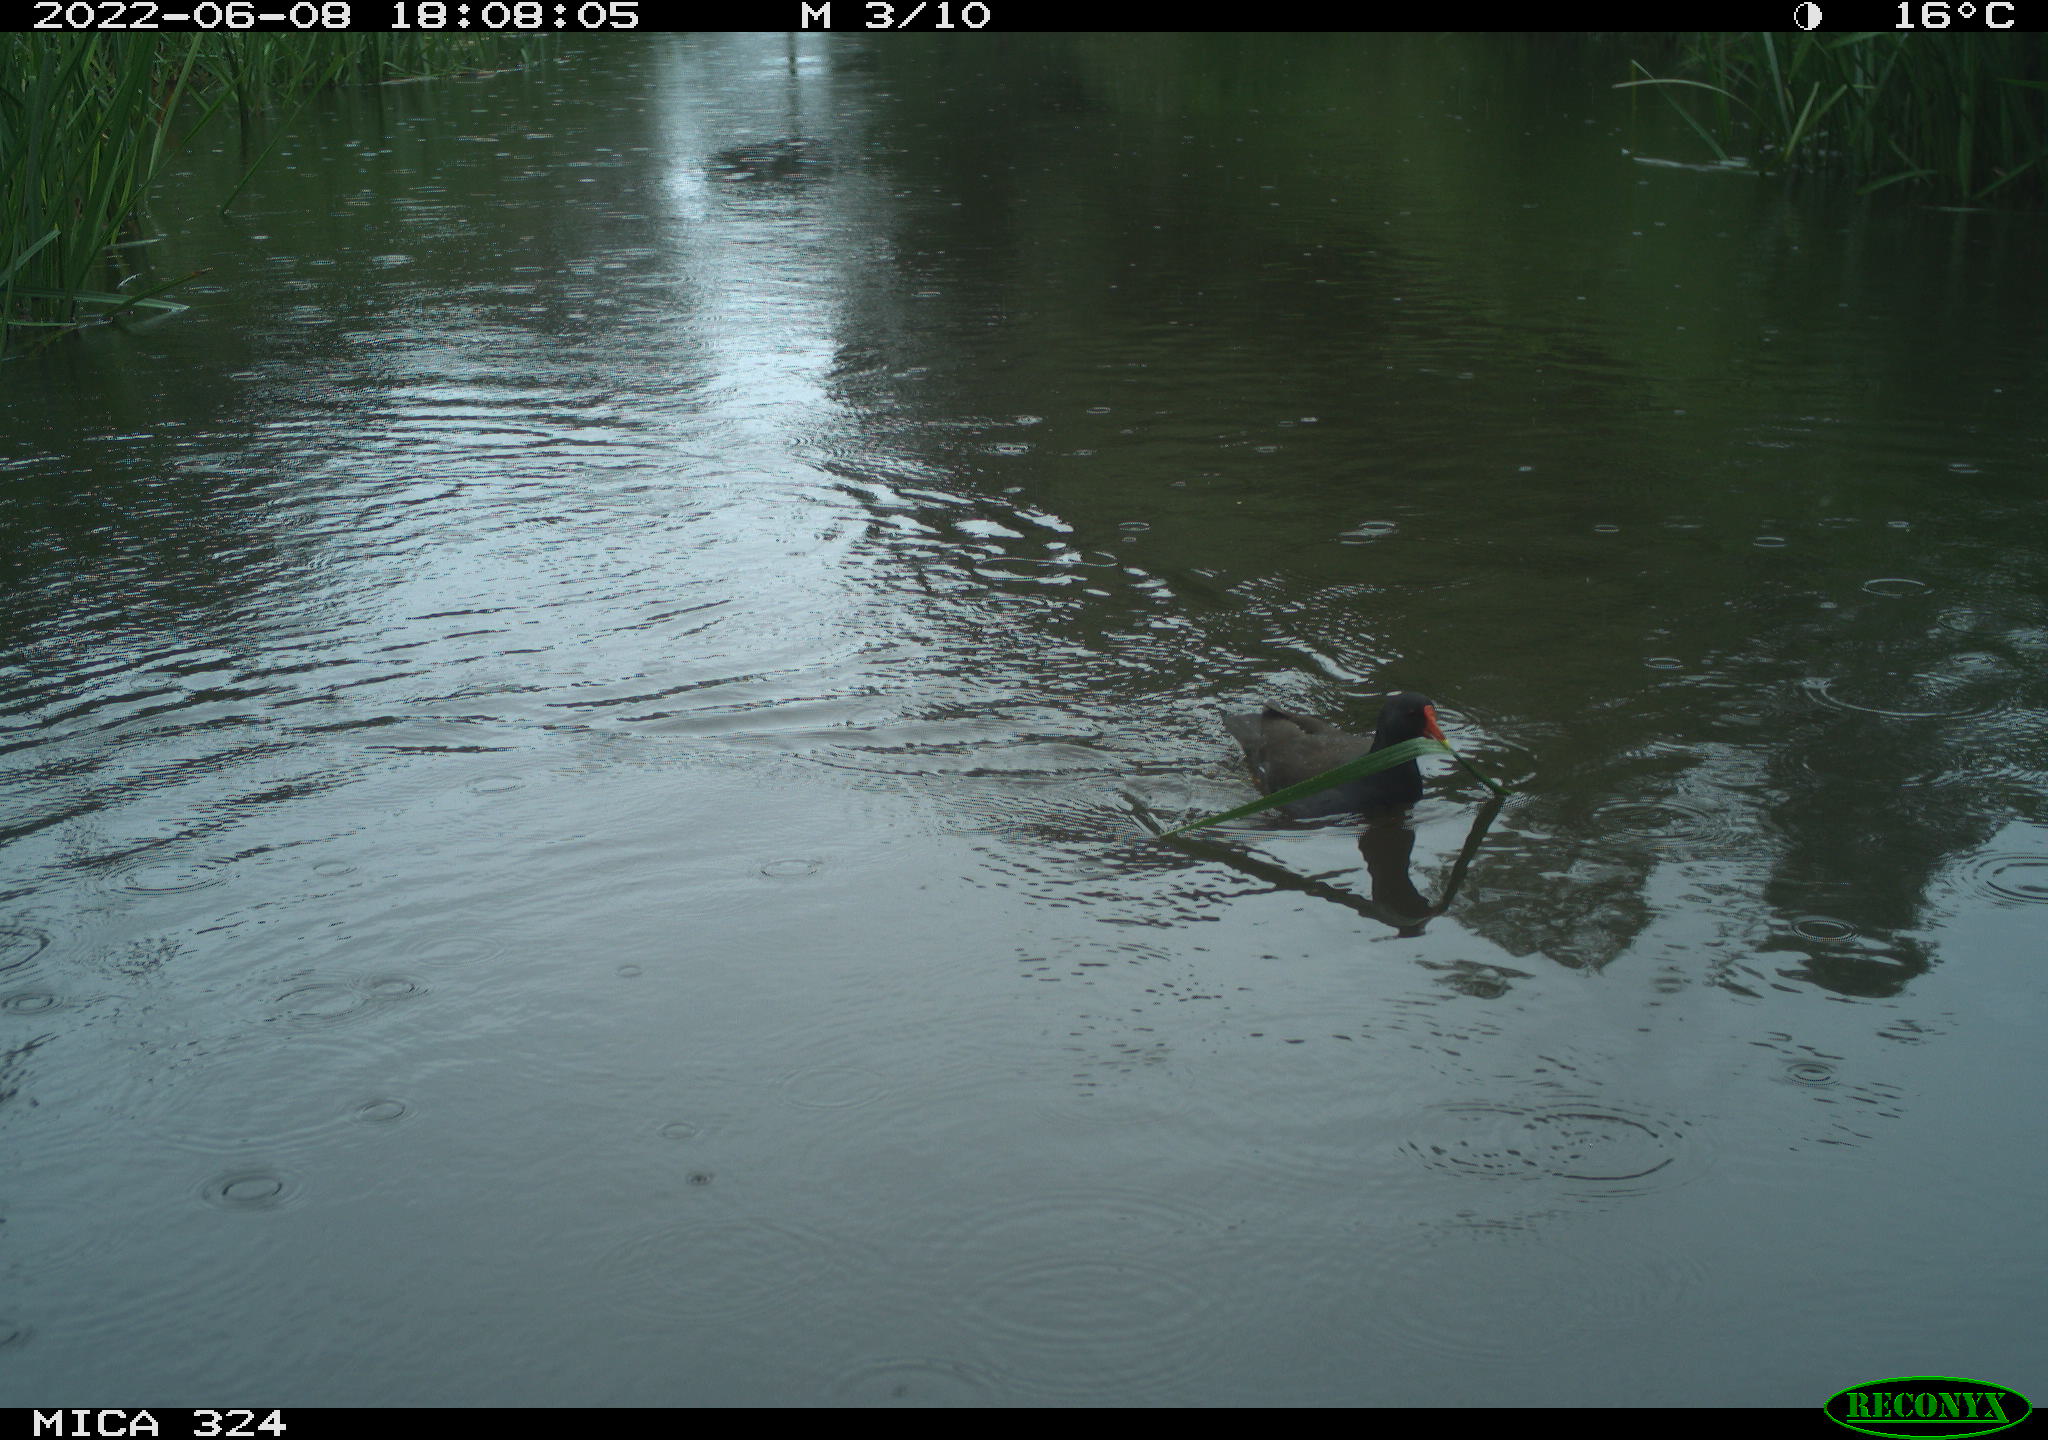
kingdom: Animalia
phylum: Chordata
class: Aves
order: Gruiformes
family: Rallidae
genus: Gallinula
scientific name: Gallinula chloropus
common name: Common moorhen
